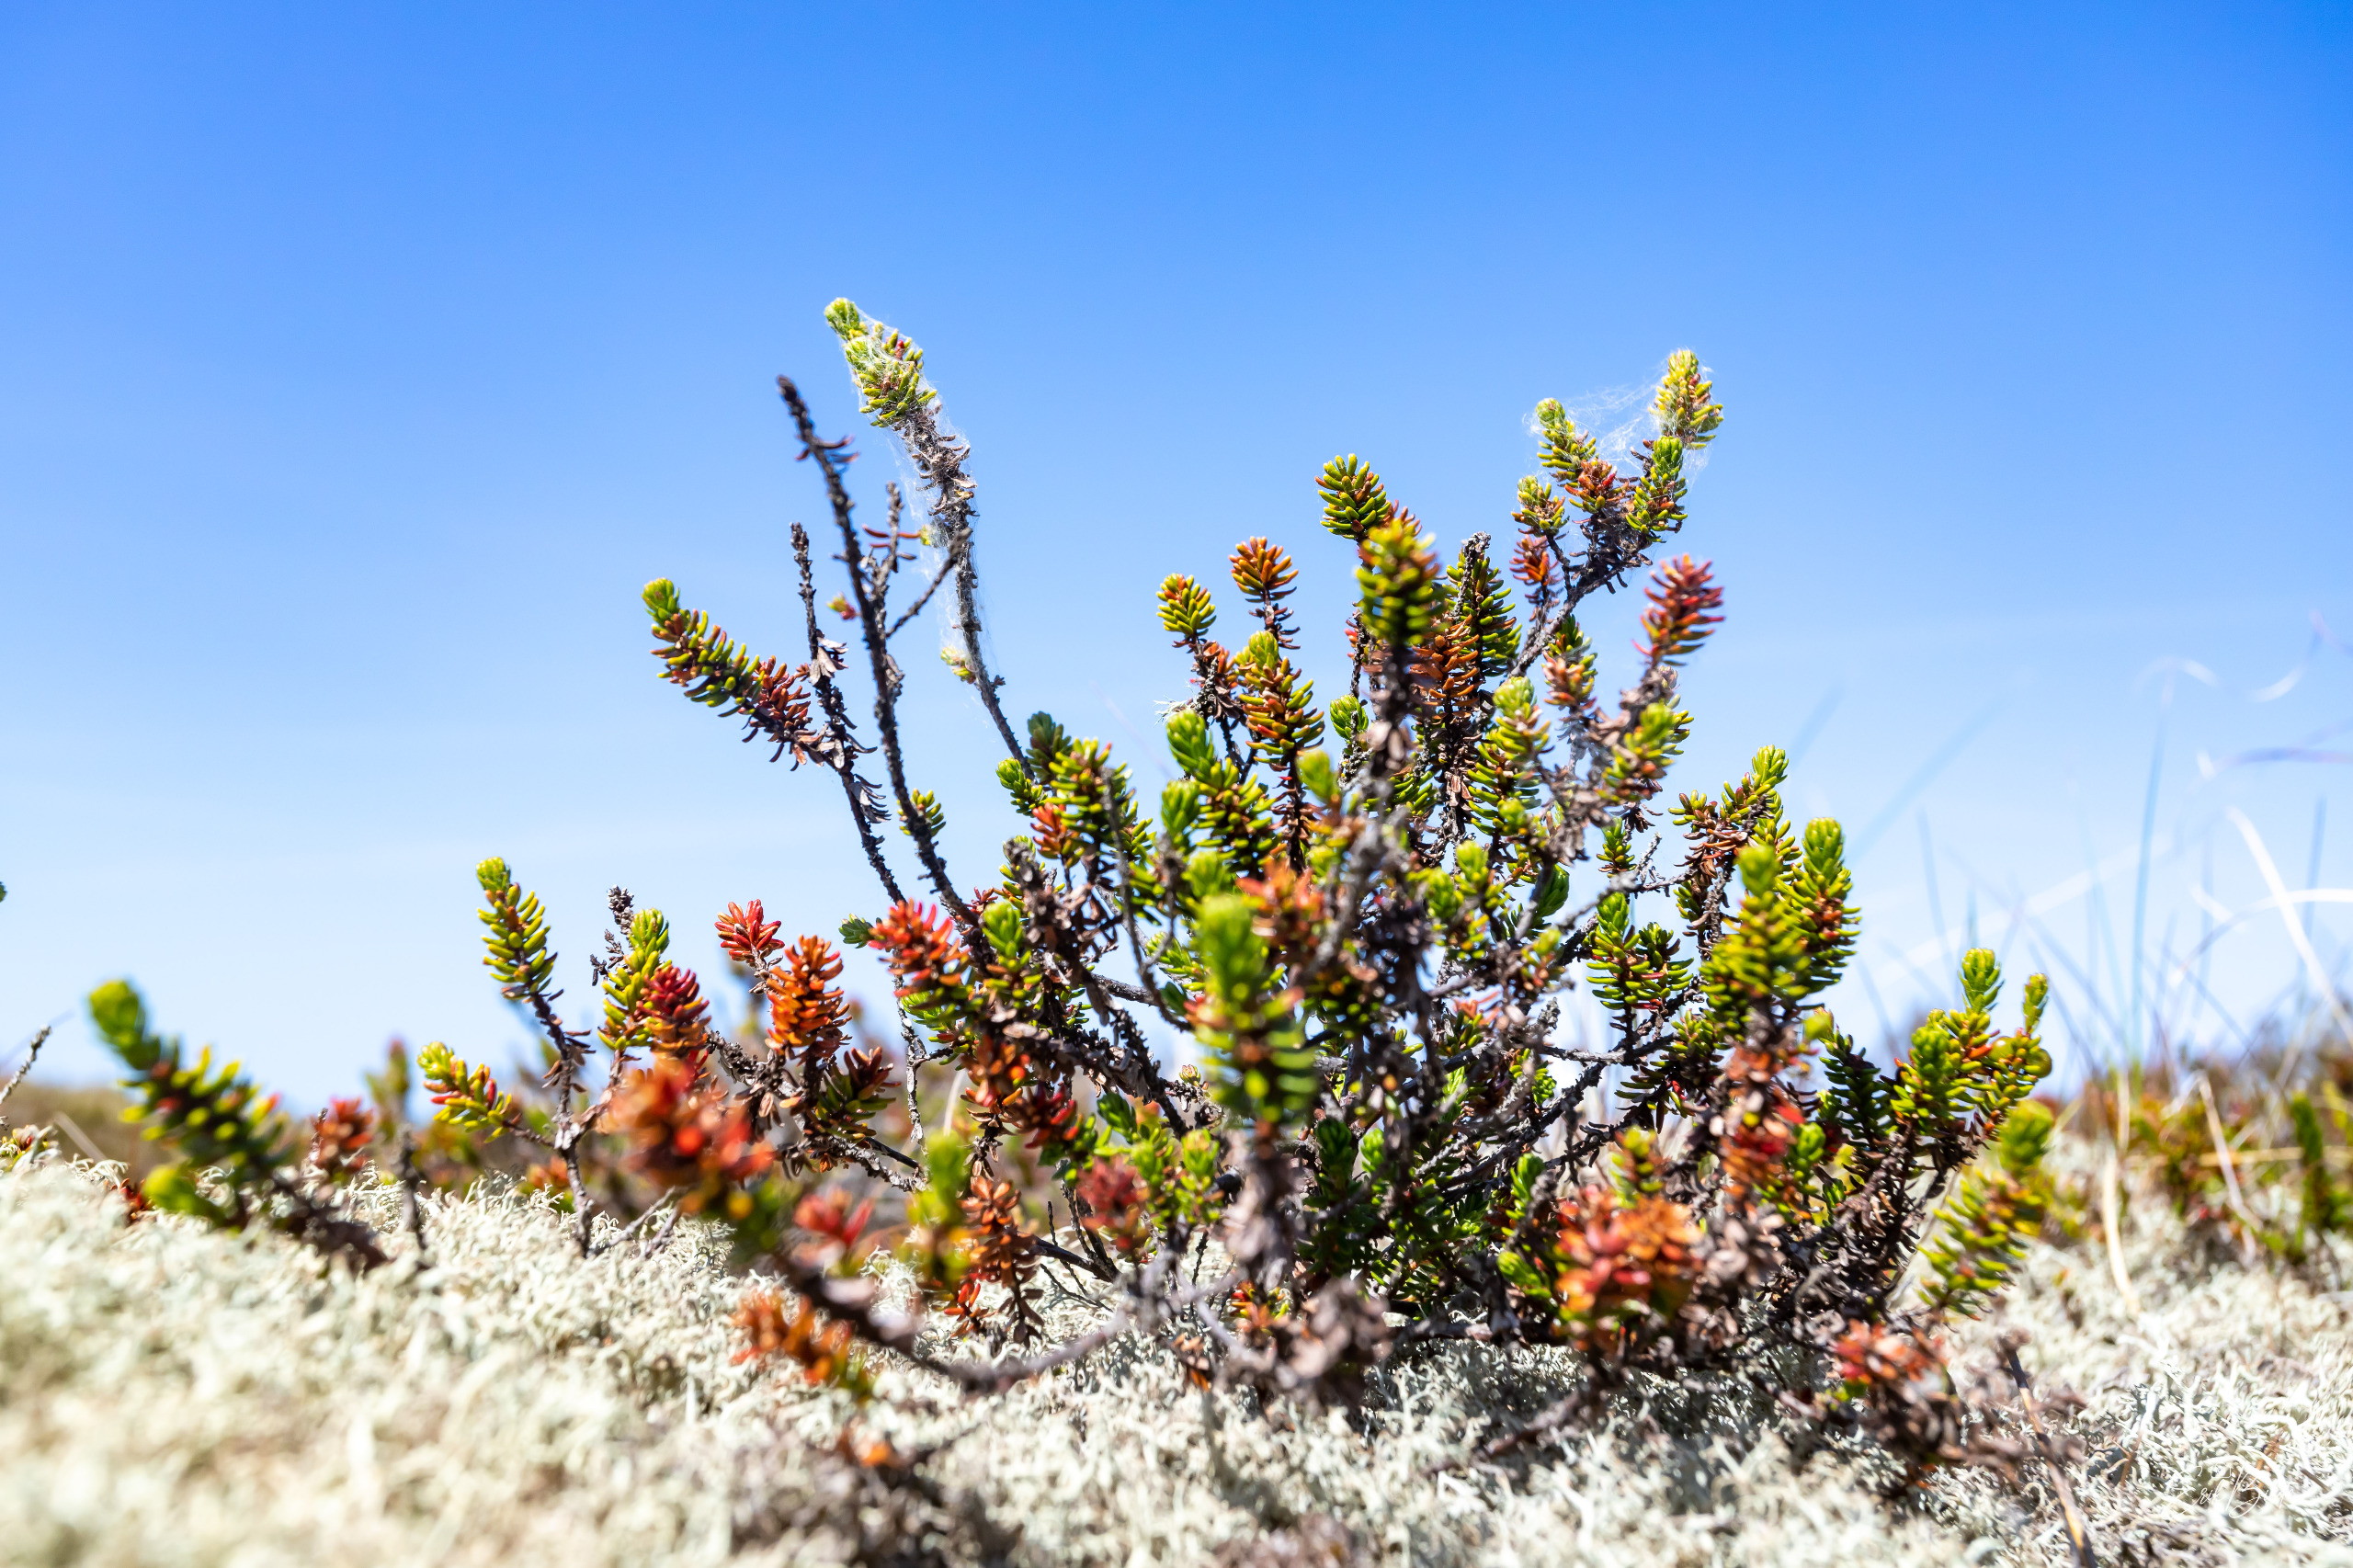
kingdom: Plantae
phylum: Tracheophyta
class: Magnoliopsida
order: Ericales
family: Ericaceae
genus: Empetrum
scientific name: Empetrum nigrum
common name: Revling
